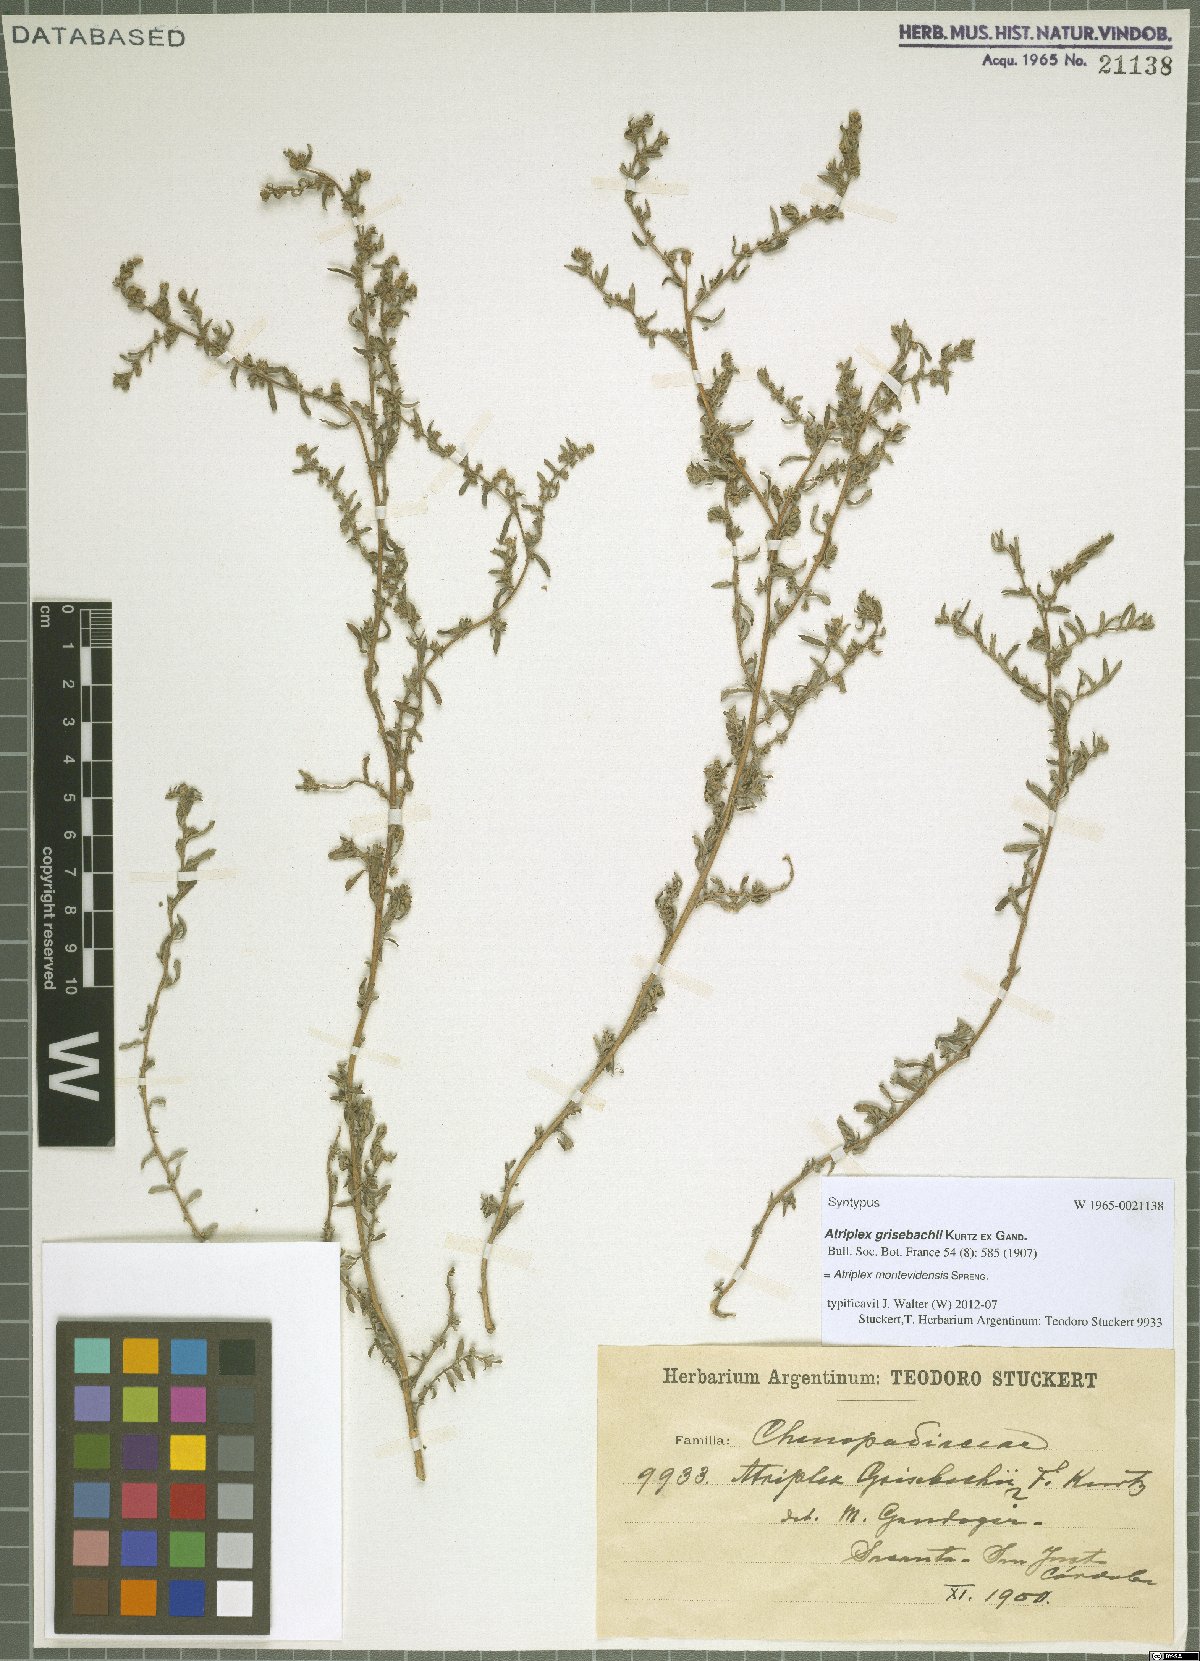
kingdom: Plantae
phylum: Tracheophyta
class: Magnoliopsida
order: Caryophyllales
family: Amaranthaceae
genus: Atriplex
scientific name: Atriplex montevidensis
